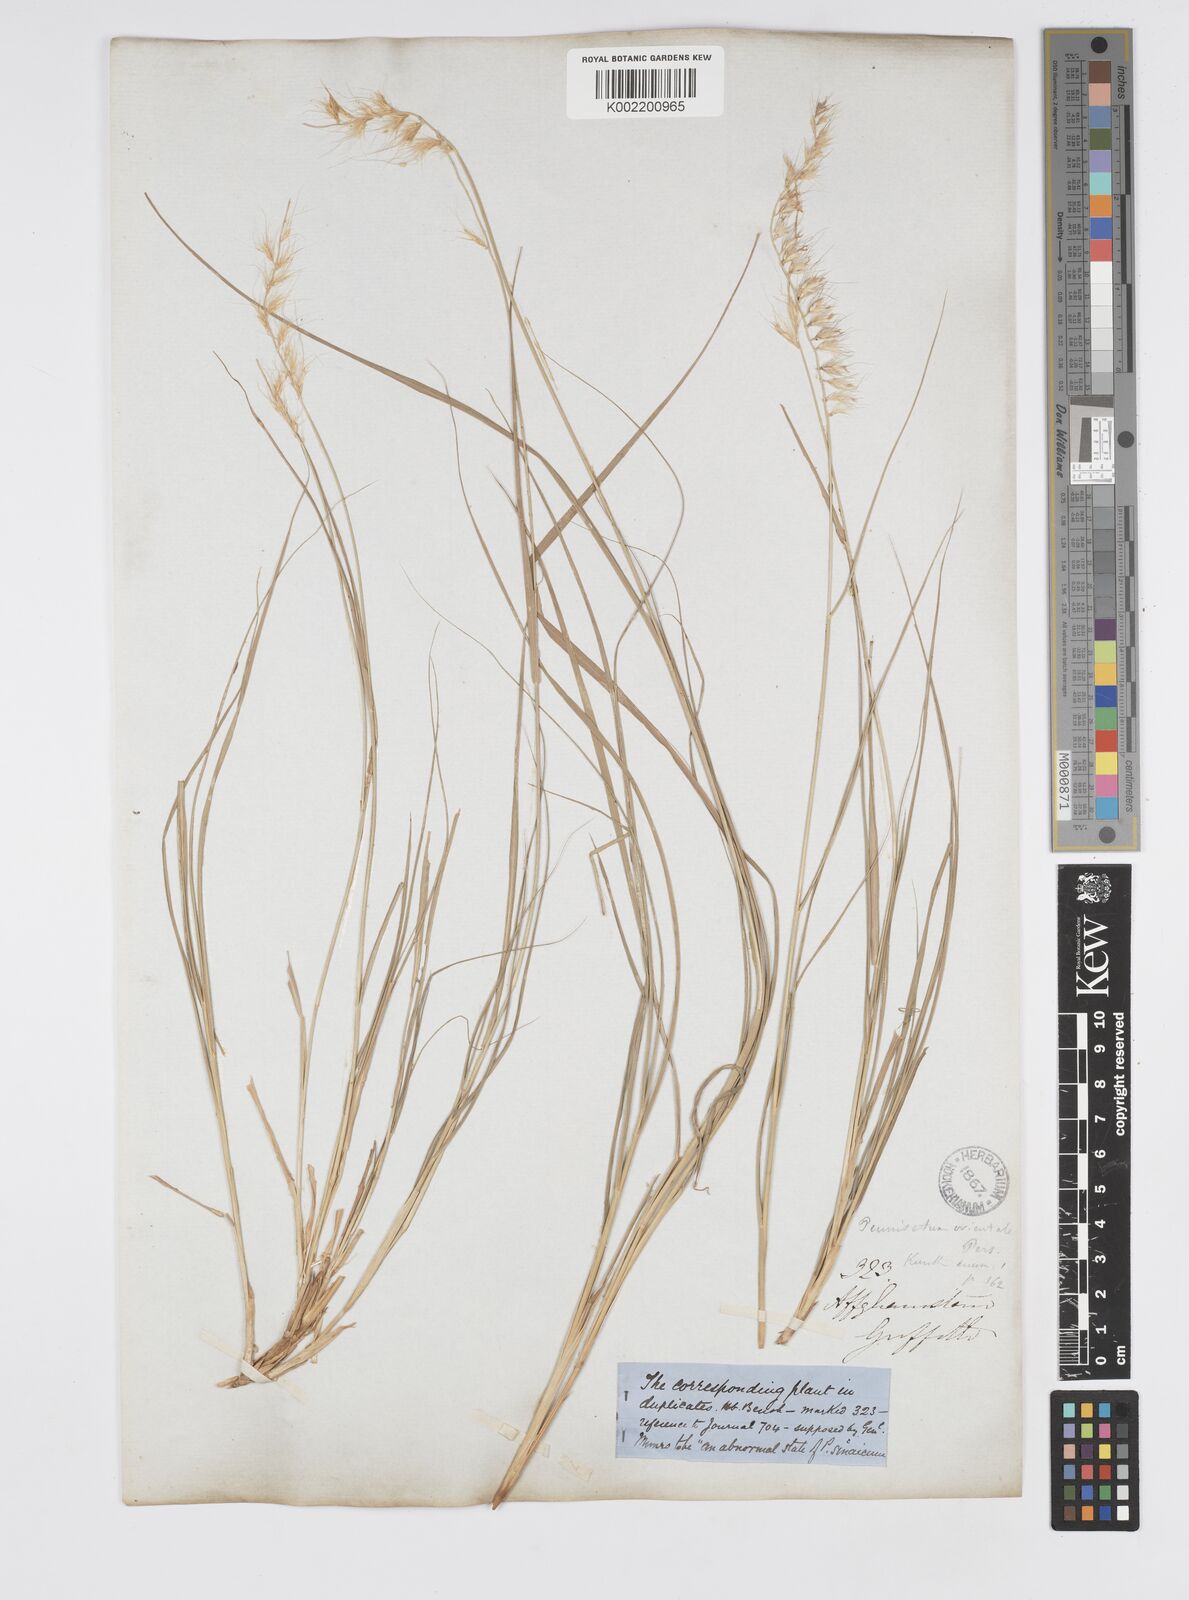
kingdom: Plantae
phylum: Tracheophyta
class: Liliopsida
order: Poales
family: Poaceae
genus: Cenchrus
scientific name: Cenchrus orientalis
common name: Oriental fountain grass
